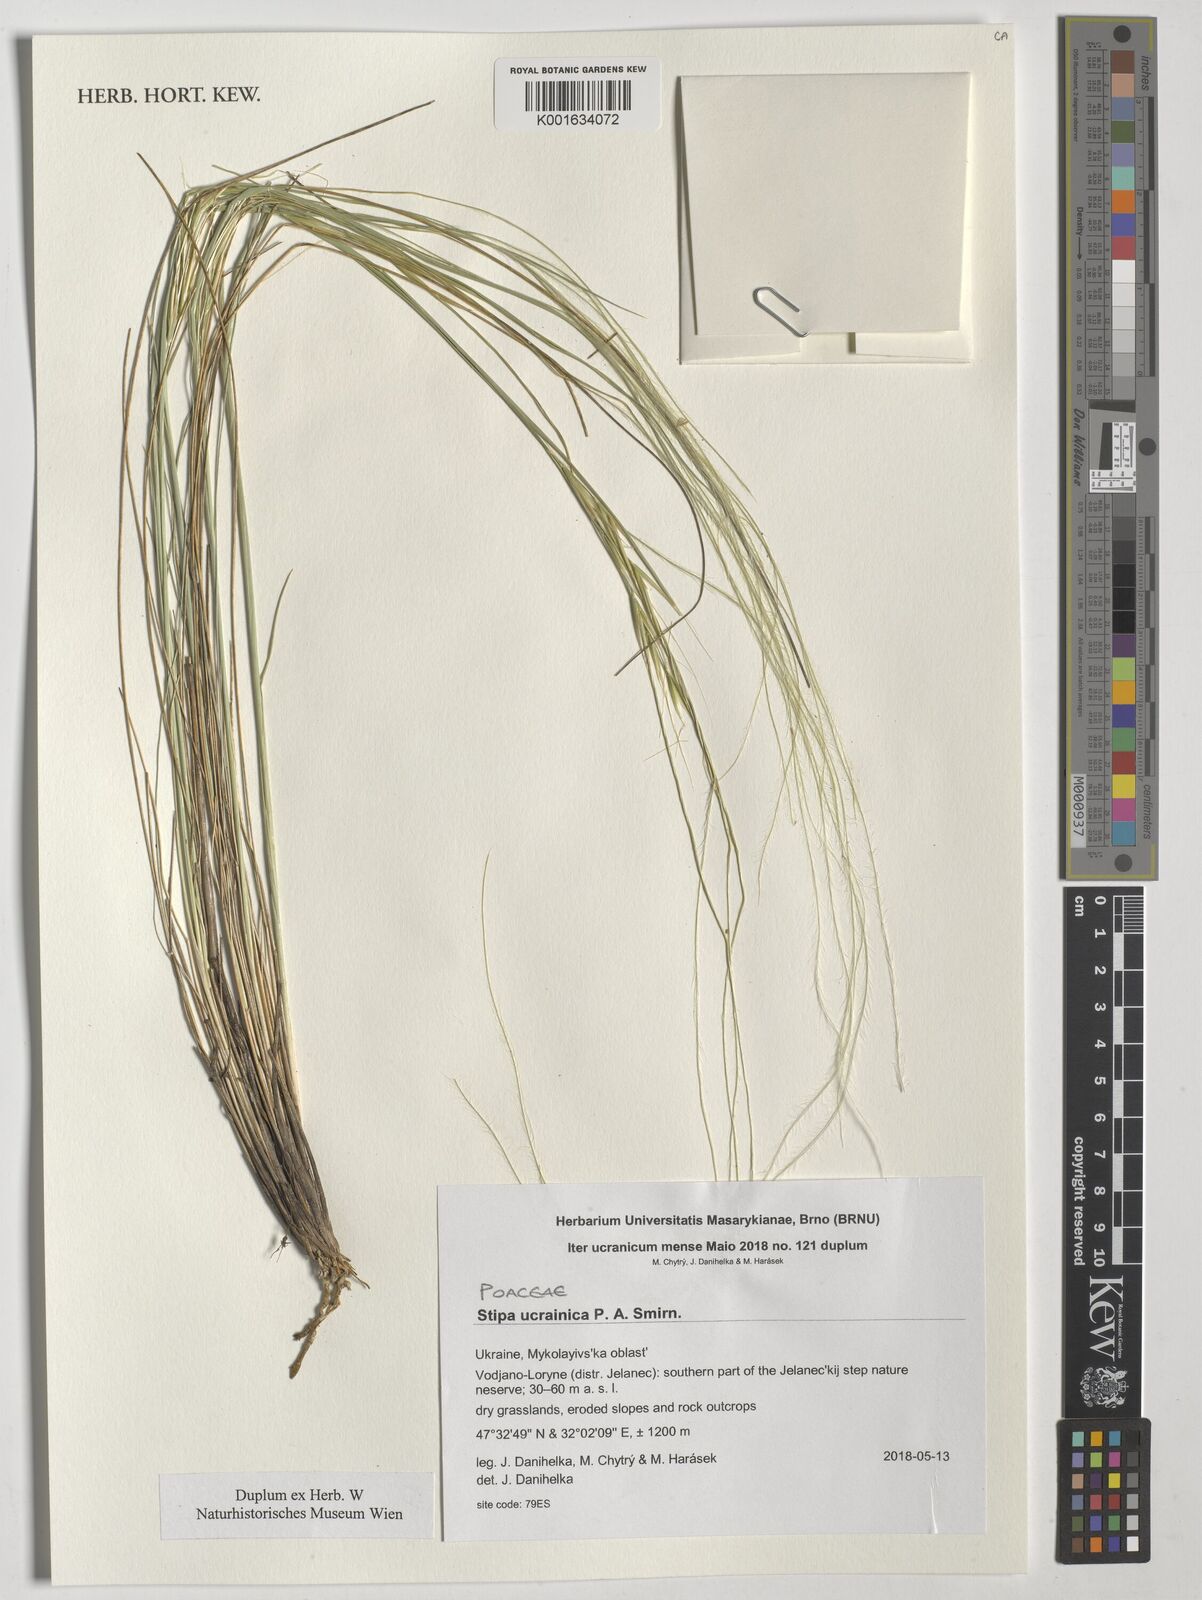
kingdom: Plantae
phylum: Tracheophyta
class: Liliopsida
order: Poales
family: Poaceae
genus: Stipa
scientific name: Stipa ucrainica
